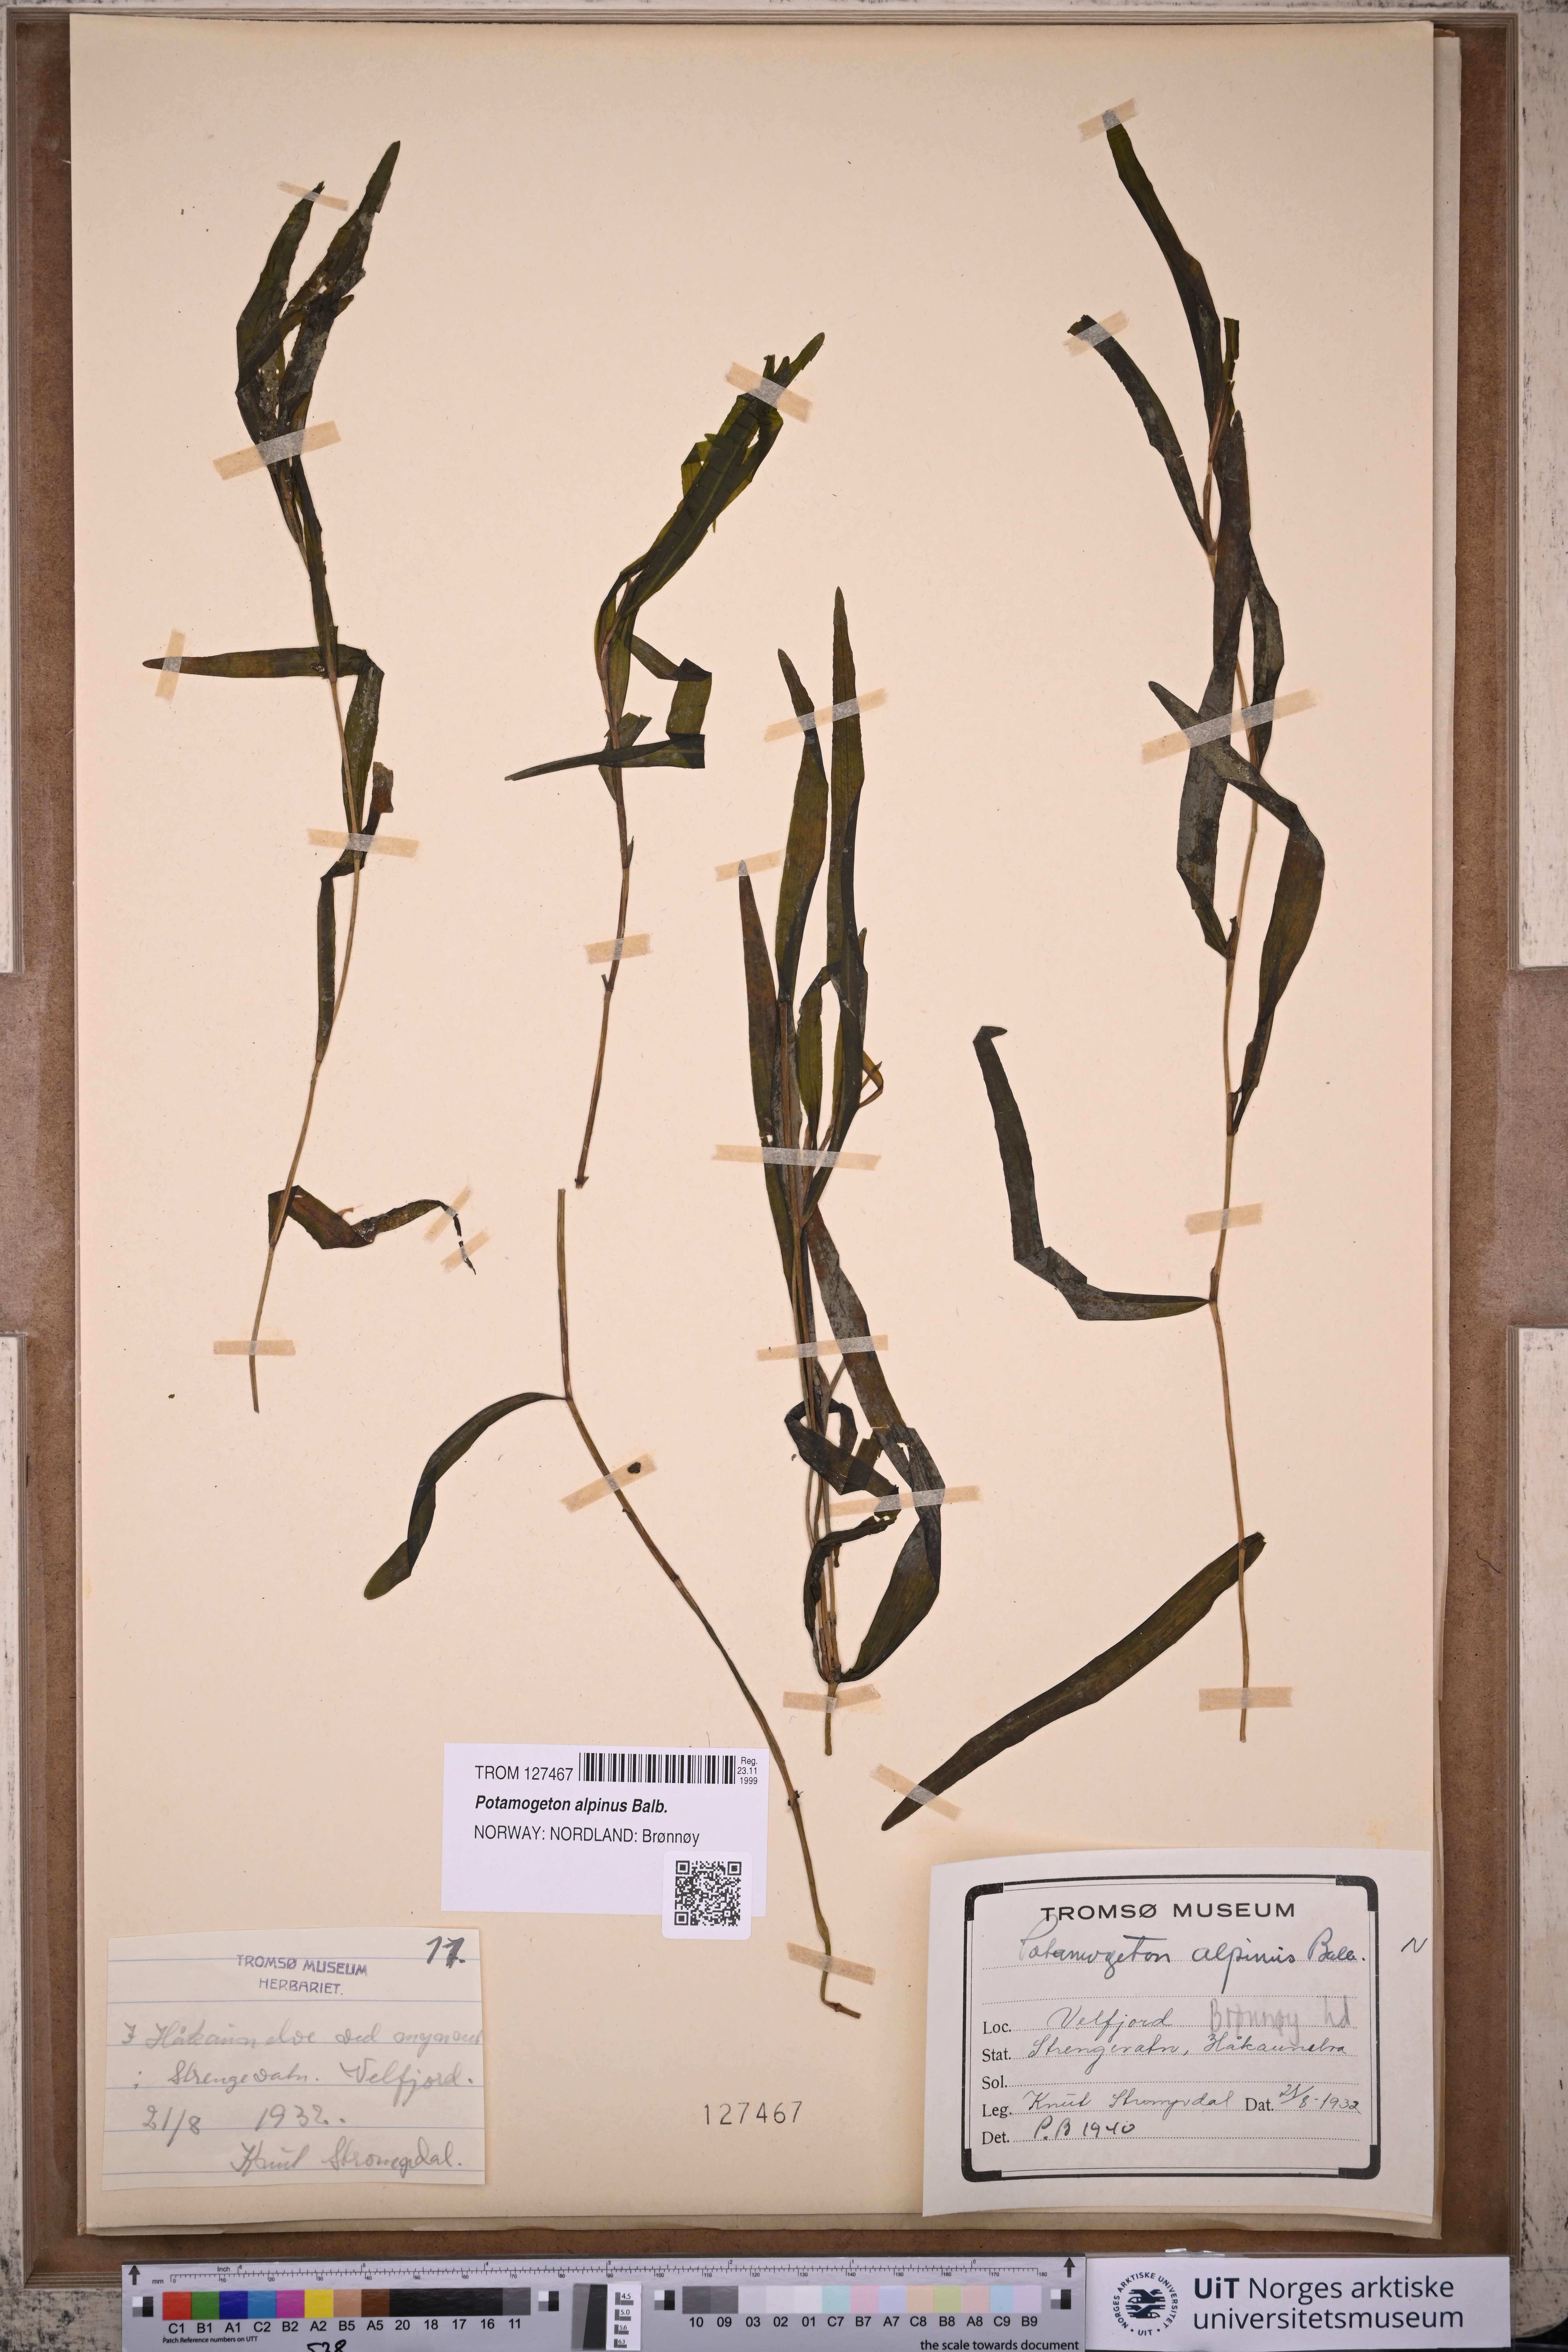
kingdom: Plantae
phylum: Tracheophyta
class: Liliopsida
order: Alismatales
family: Potamogetonaceae
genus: Potamogeton
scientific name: Potamogeton alpinus
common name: Red pondweed
